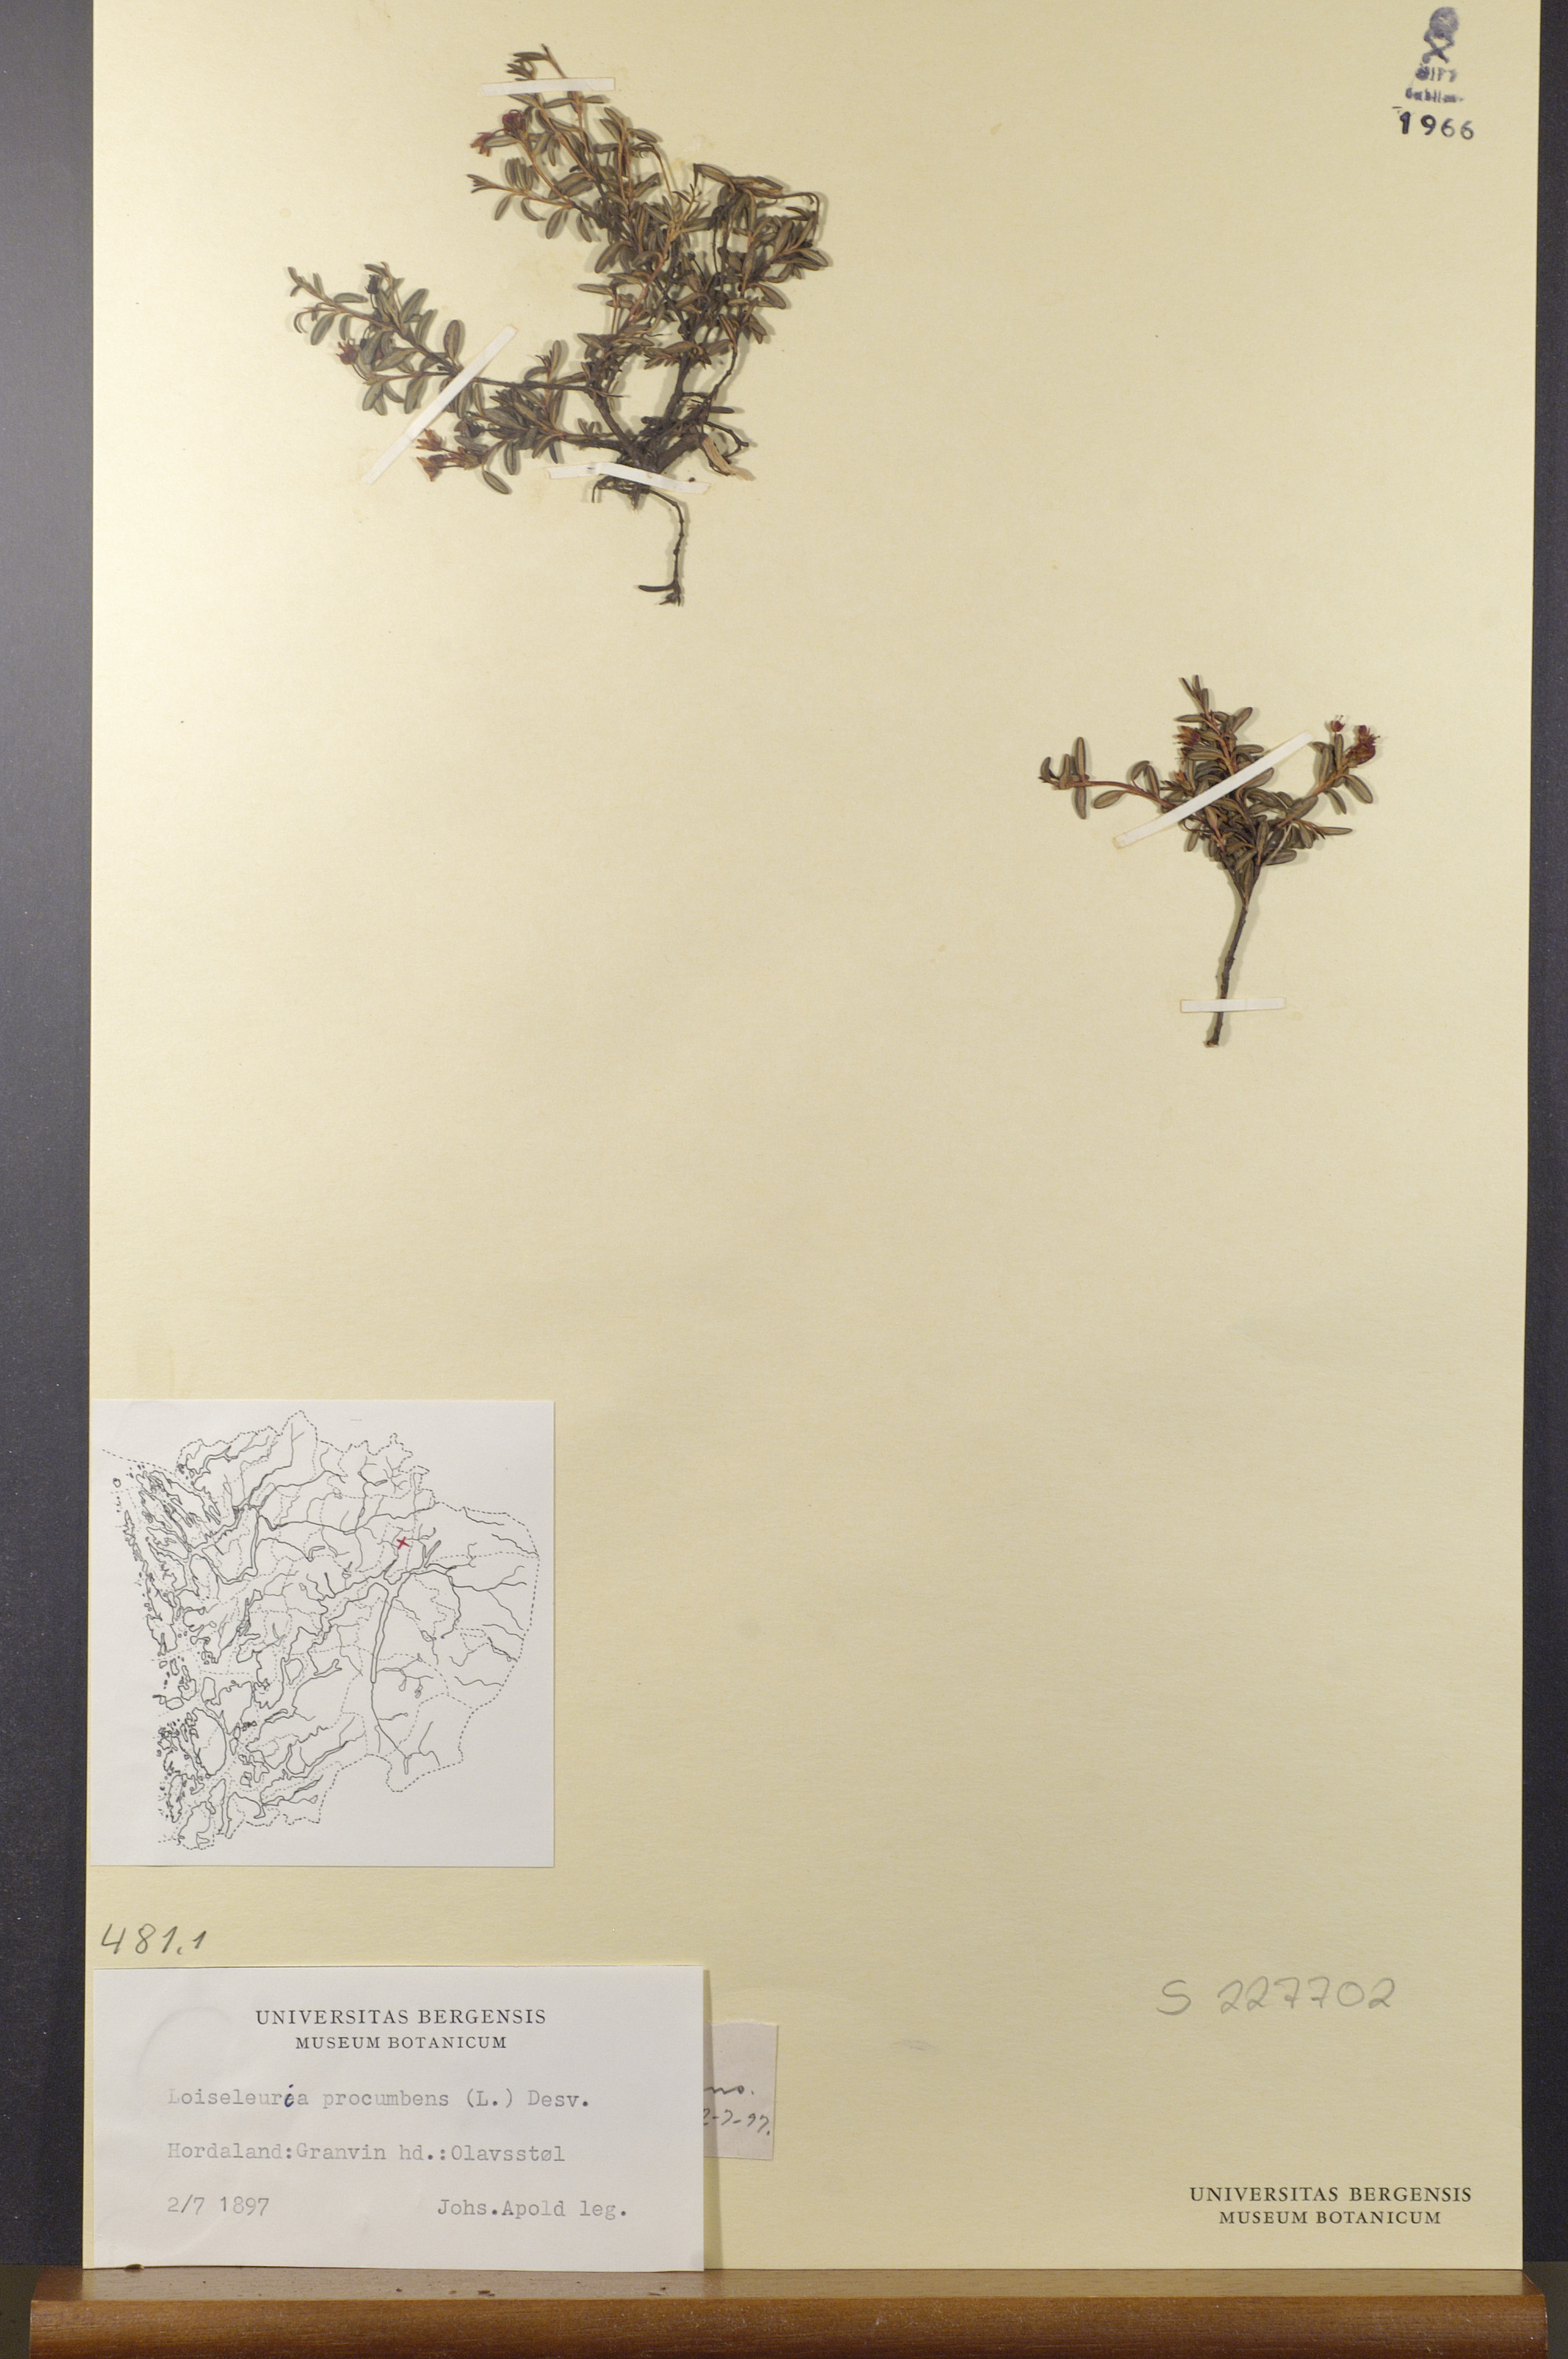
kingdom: Plantae
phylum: Tracheophyta
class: Magnoliopsida
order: Ericales
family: Ericaceae
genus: Kalmia
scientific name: Kalmia procumbens
